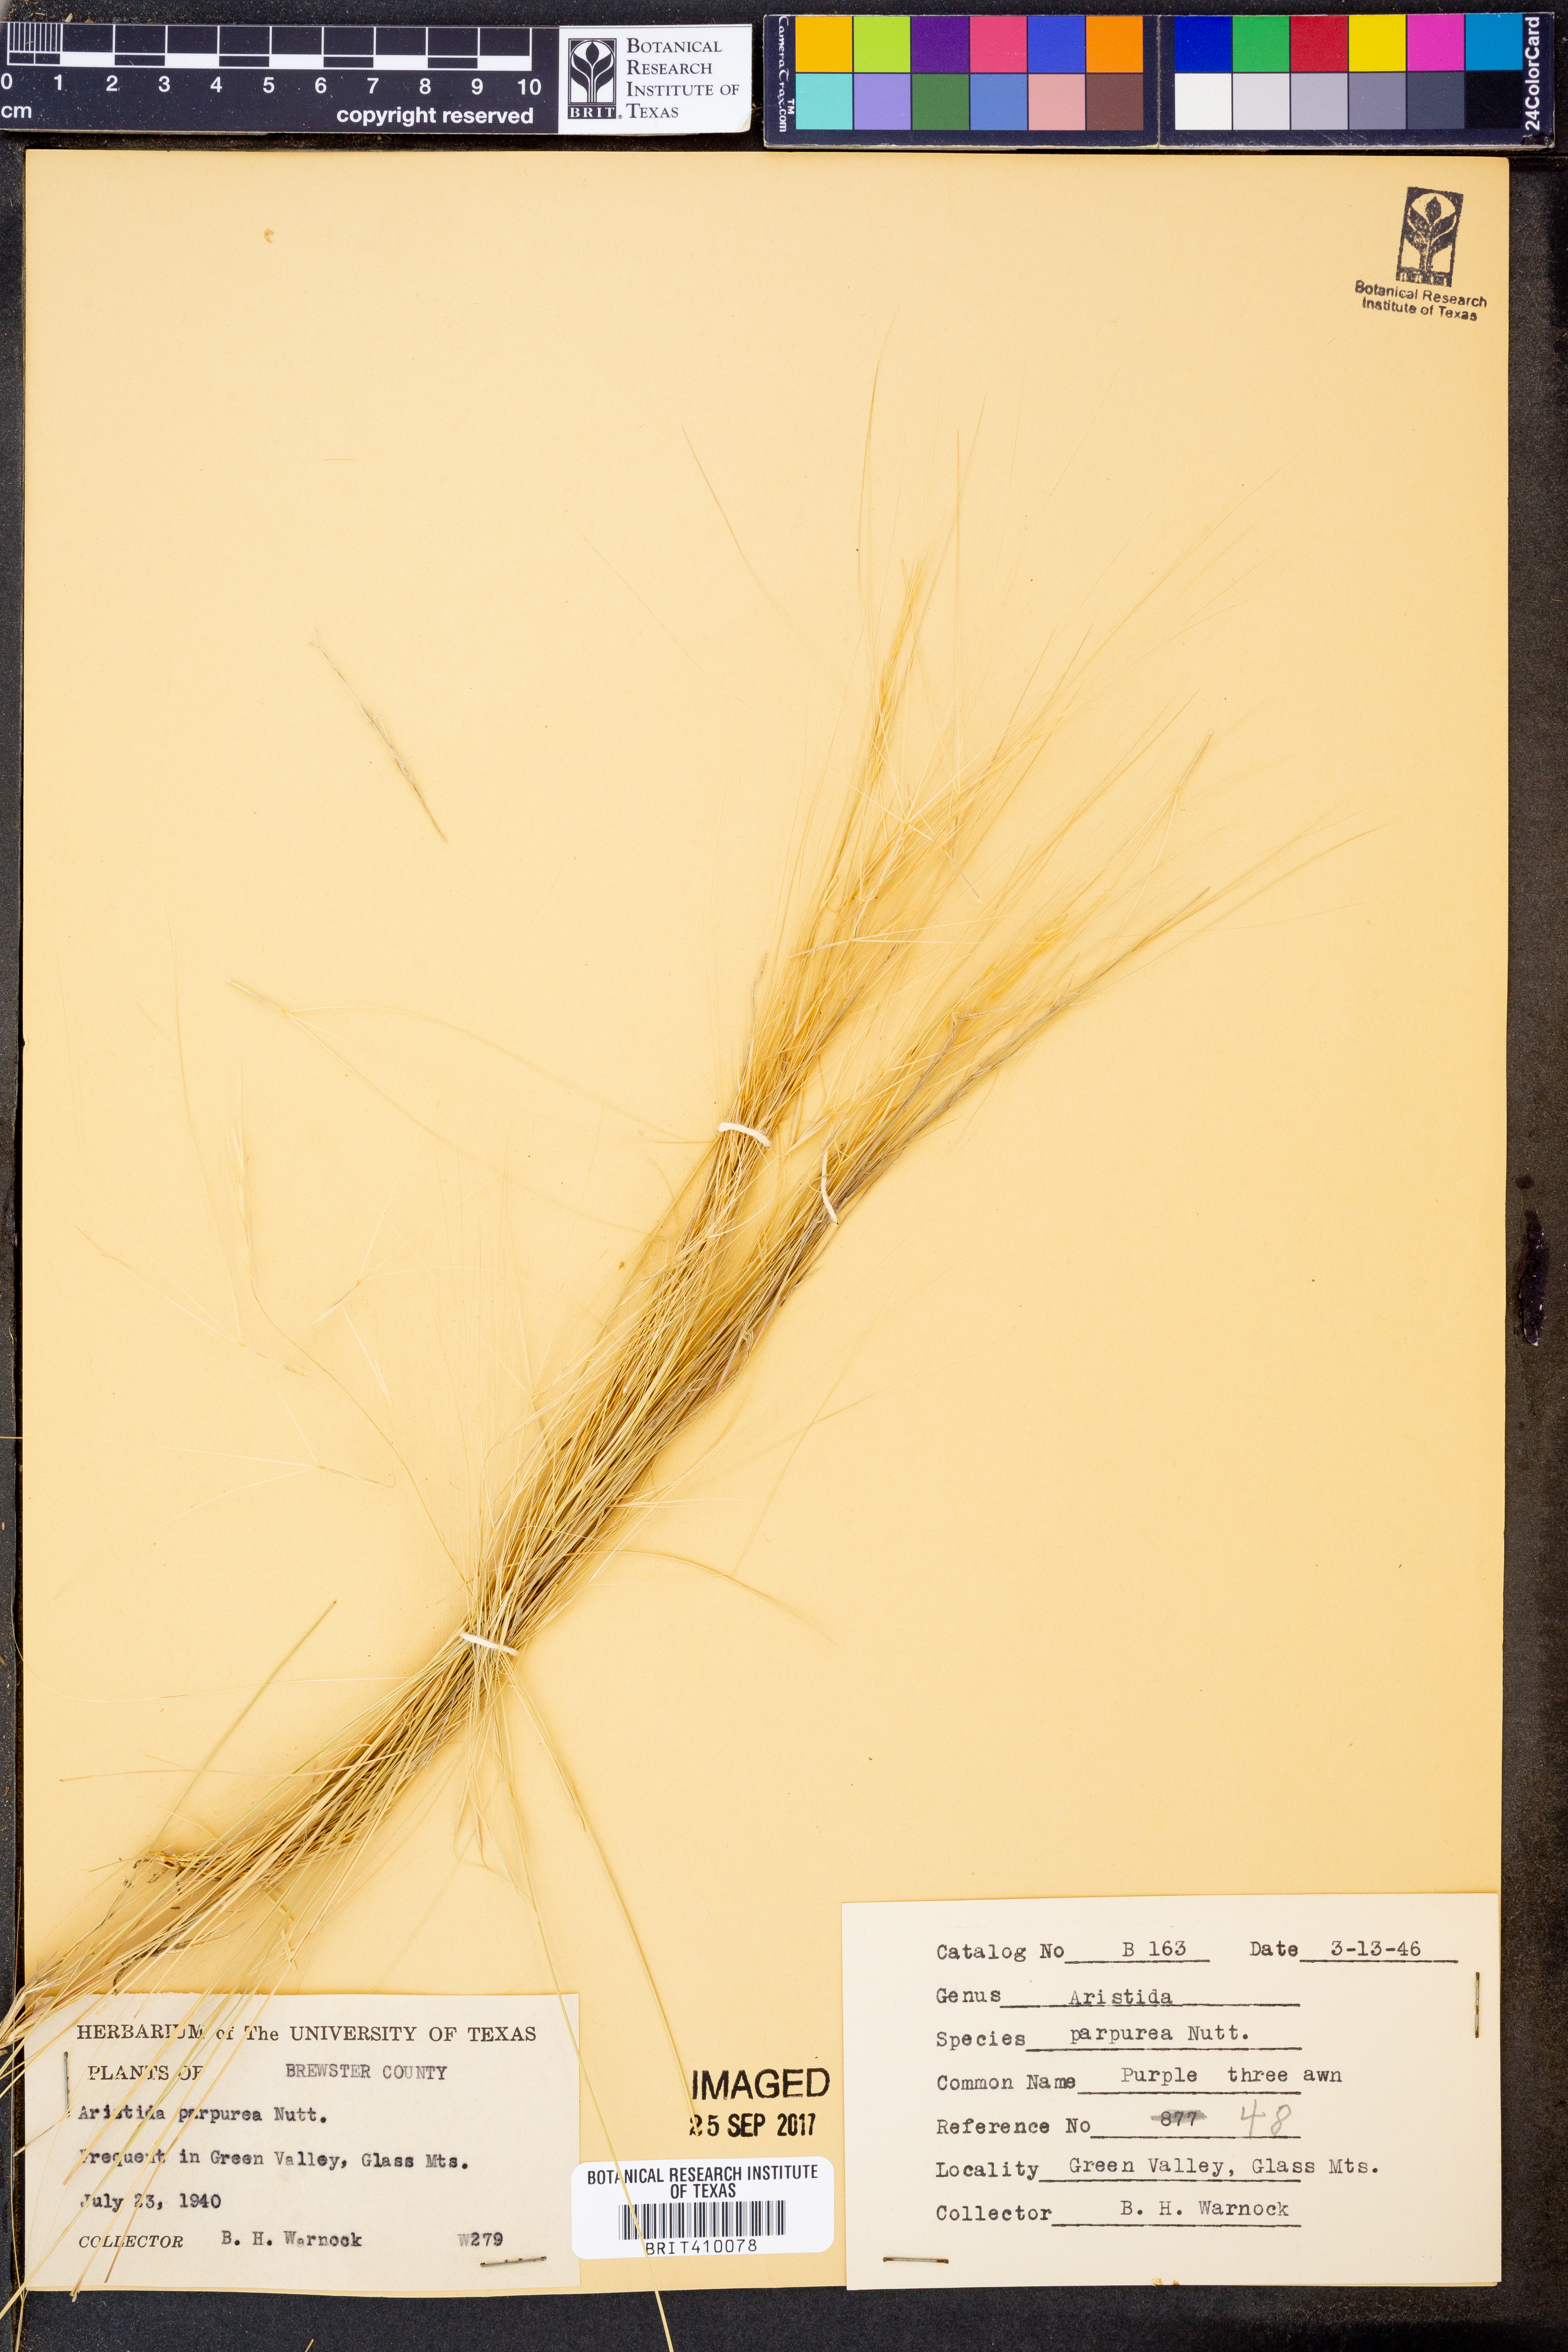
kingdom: Plantae
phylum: Tracheophyta
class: Liliopsida
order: Poales
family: Poaceae
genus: Aristida
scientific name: Aristida purpurea
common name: Purple threeawn
